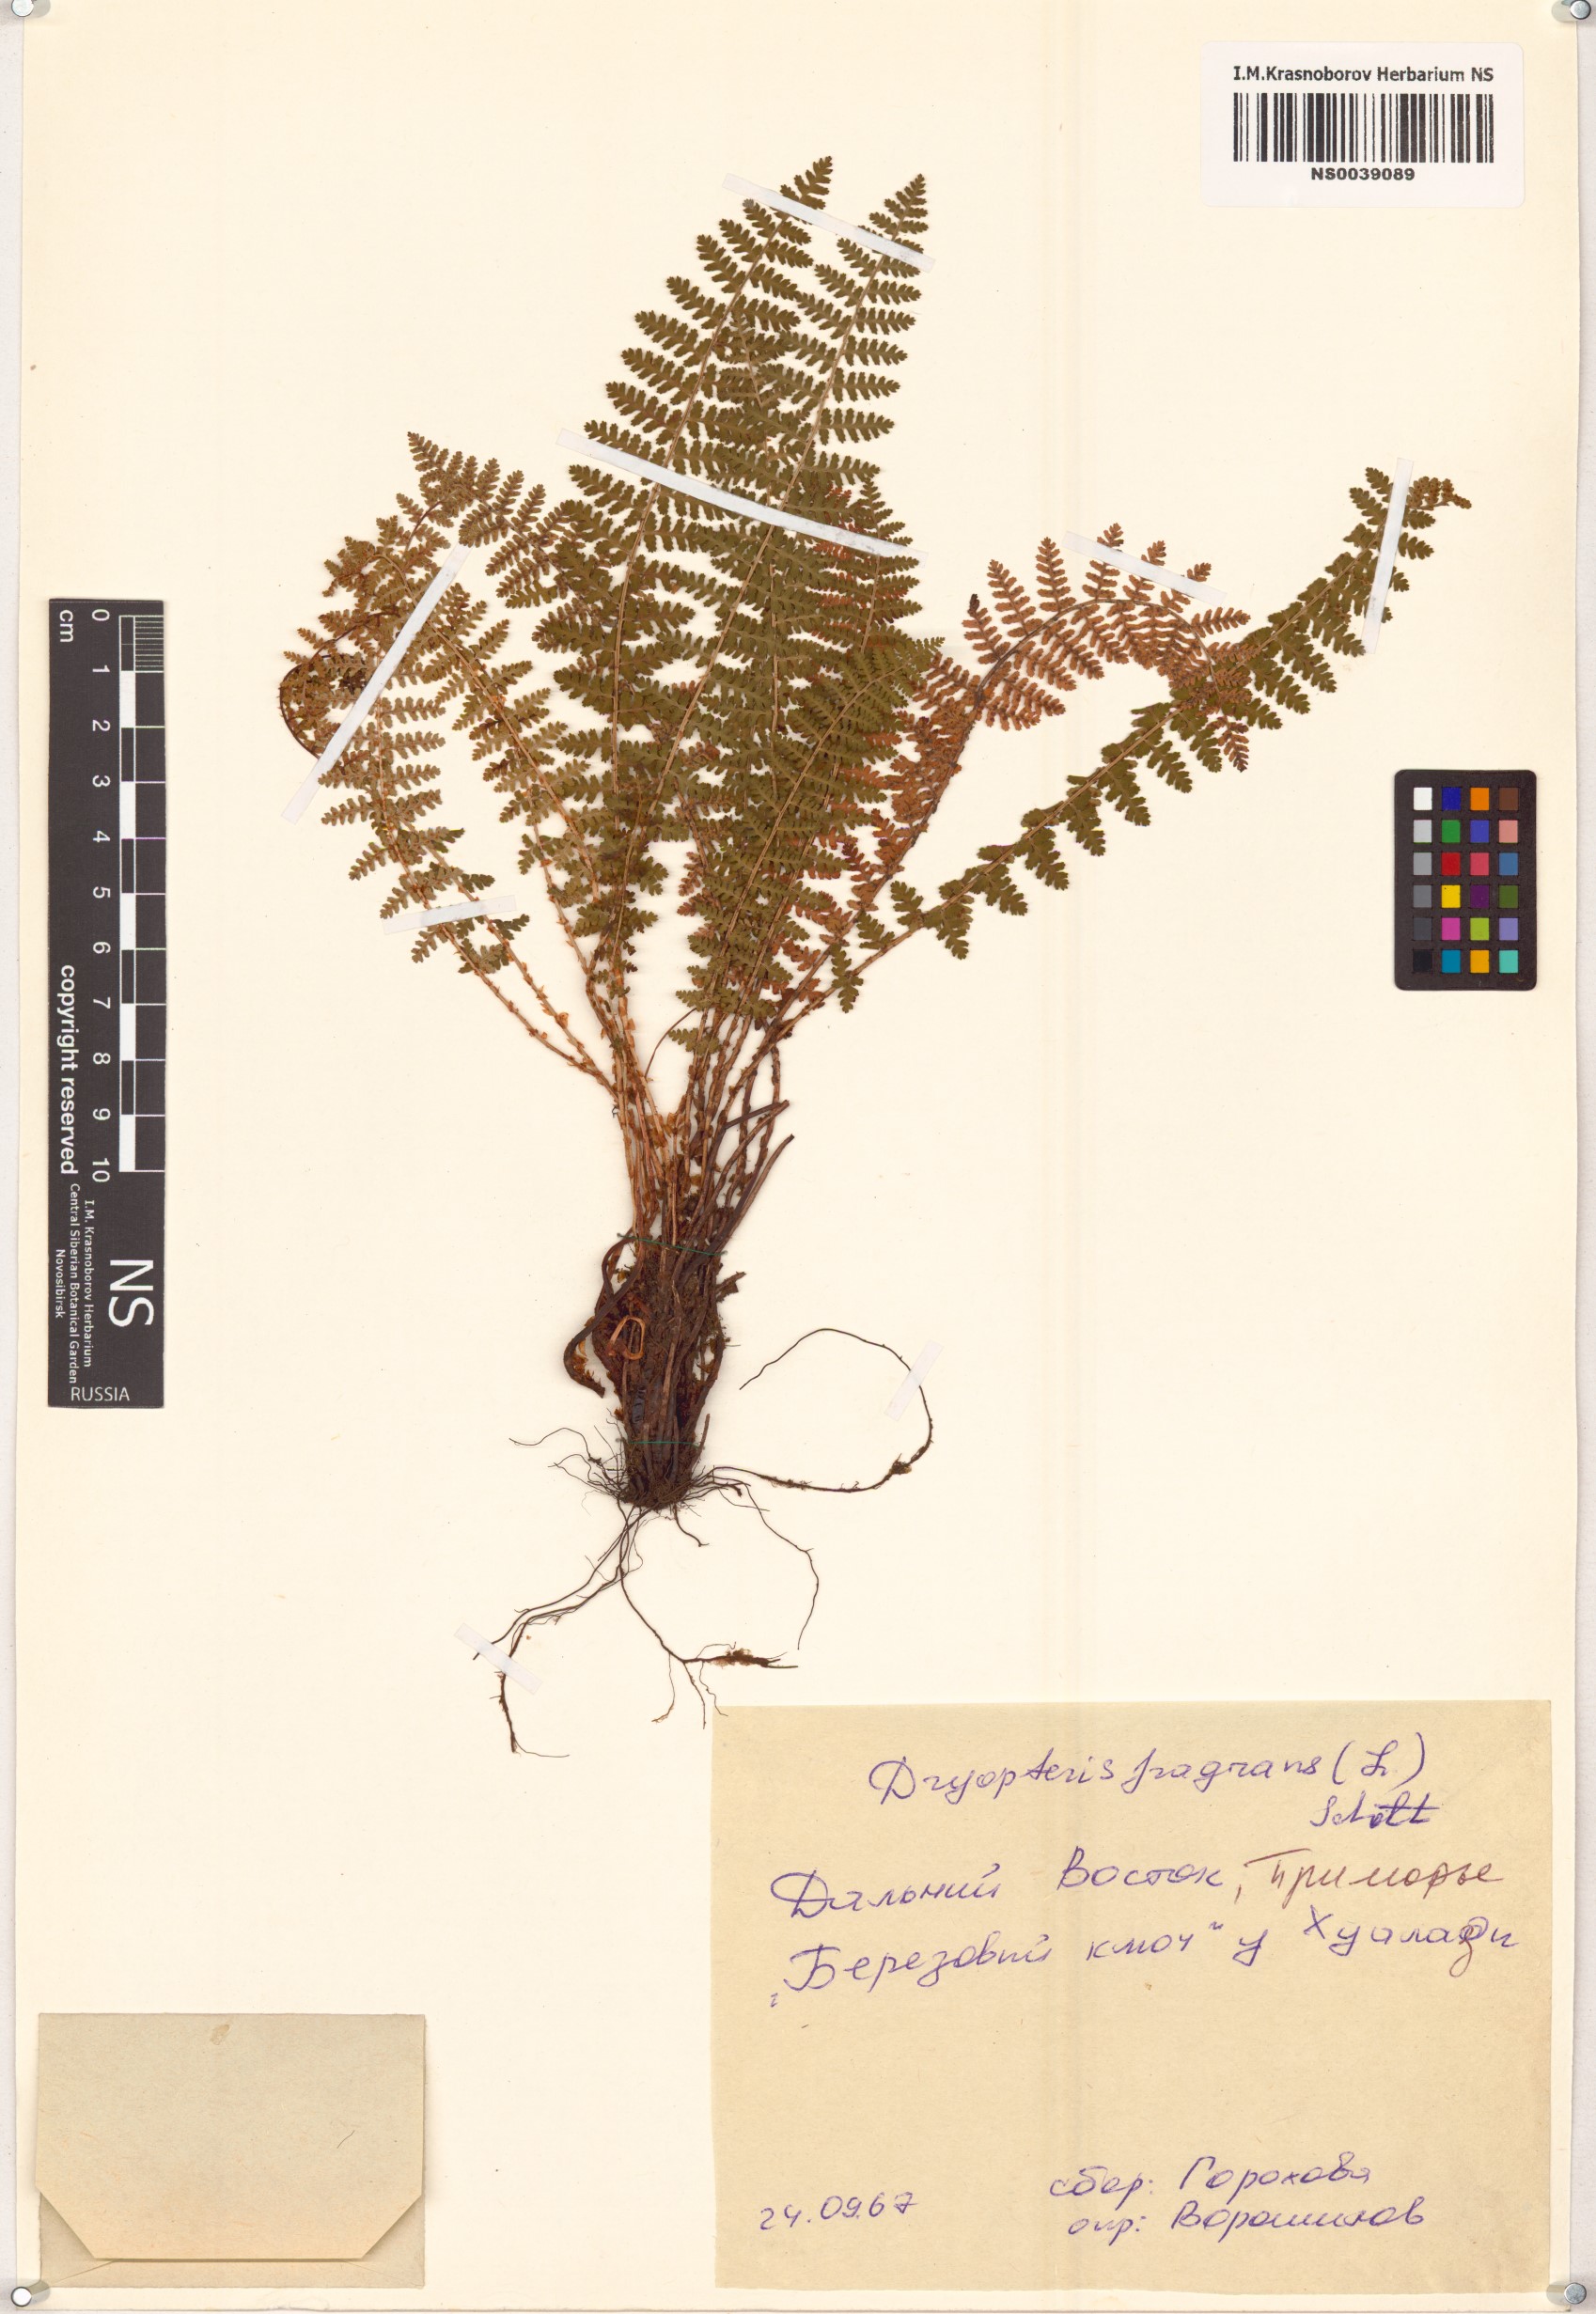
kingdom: Plantae
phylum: Tracheophyta
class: Polypodiopsida
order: Polypodiales
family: Dryopteridaceae
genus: Dryopteris
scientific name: Dryopteris fragrans
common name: Fragrant wood fern
